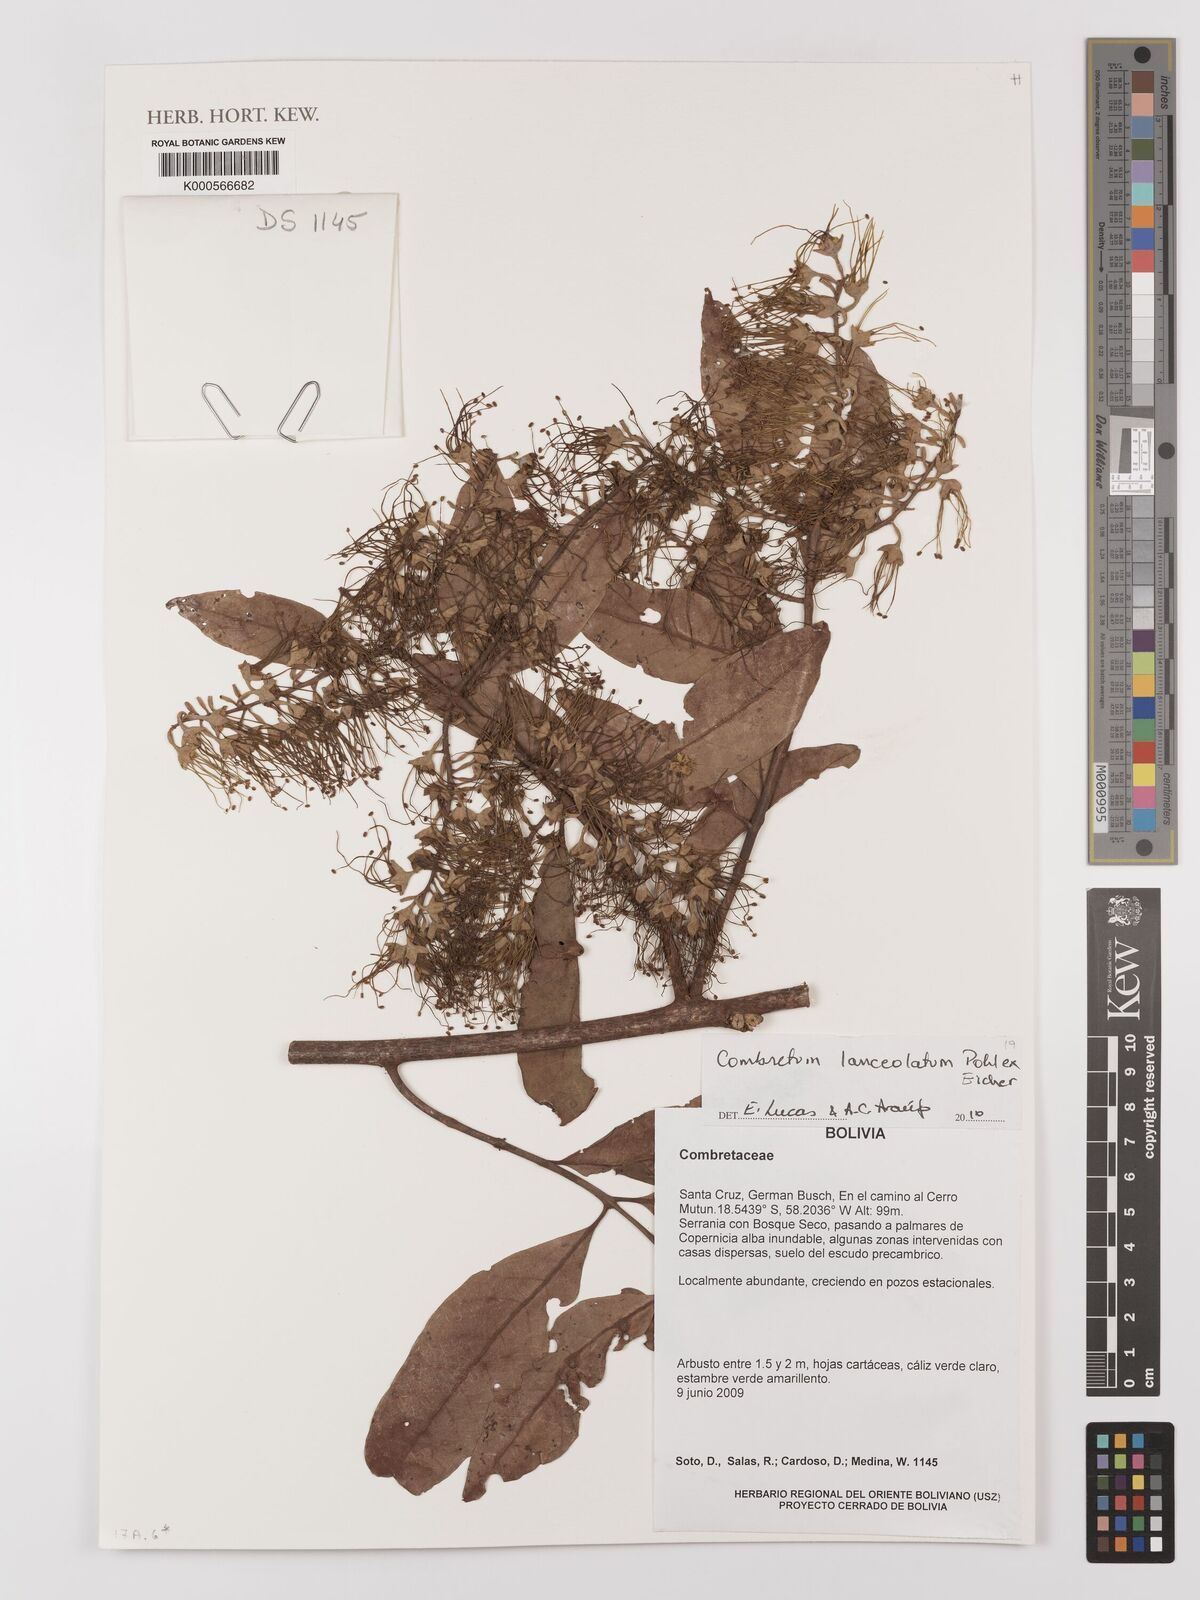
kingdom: Plantae
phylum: Tracheophyta
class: Magnoliopsida
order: Myrtales
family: Combretaceae
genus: Combretum
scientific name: Combretum lanceolatum
